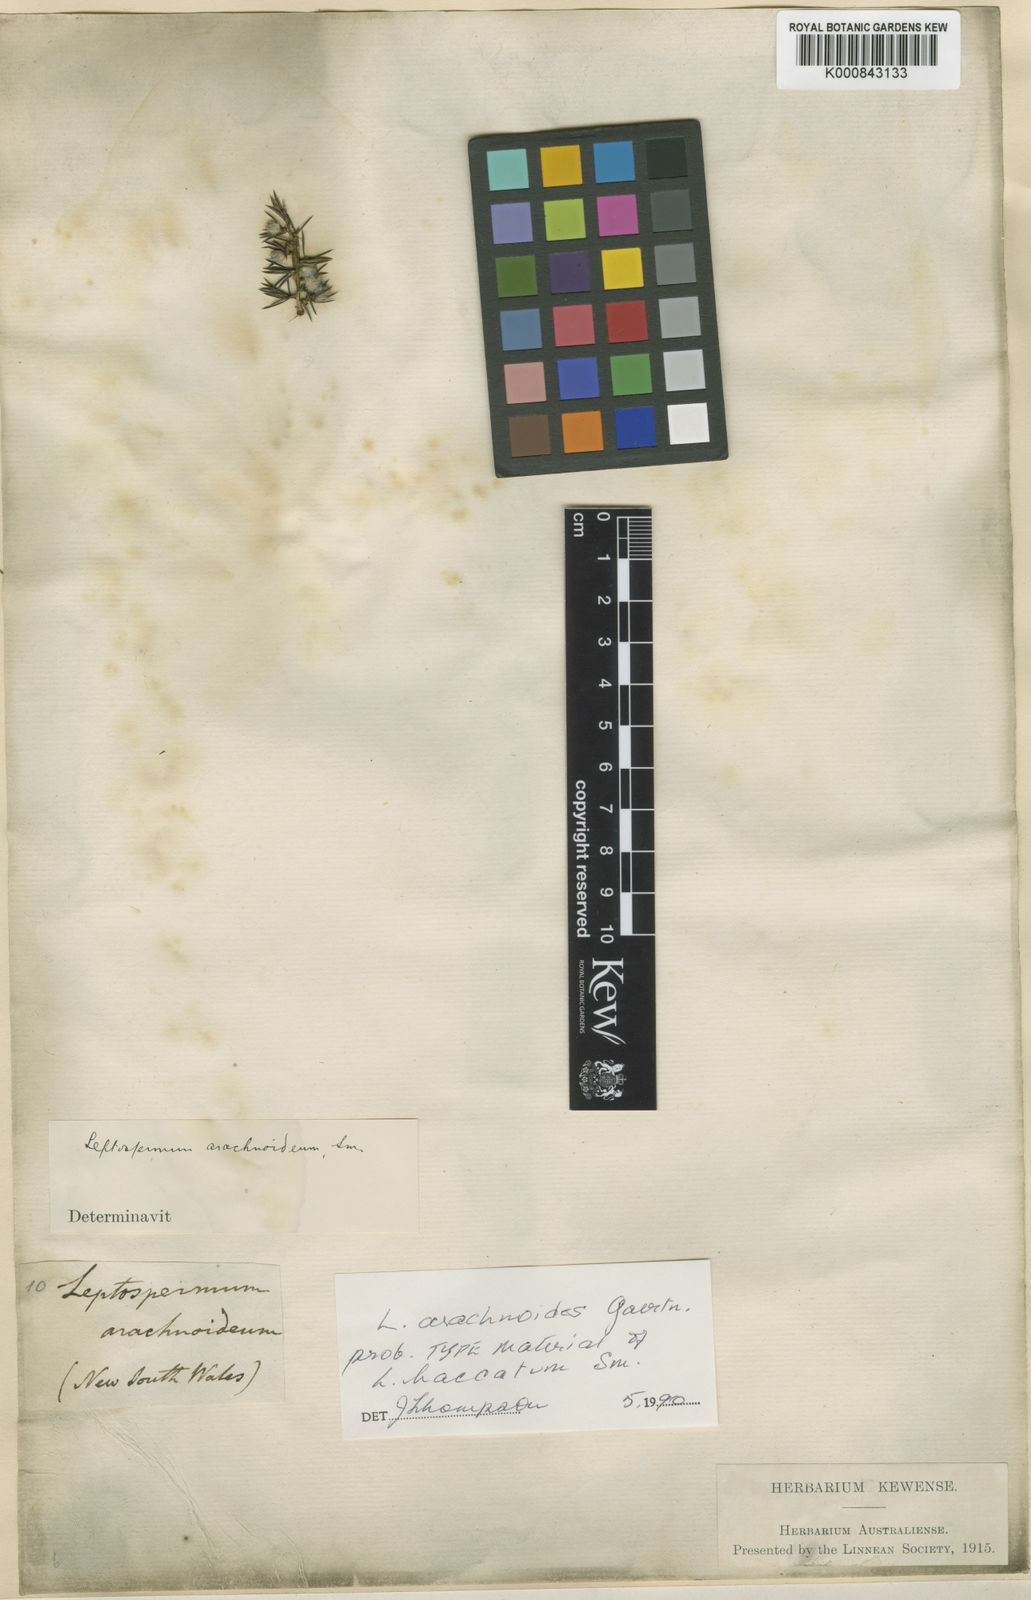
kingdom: Plantae
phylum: Tracheophyta
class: Magnoliopsida
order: Myrtales
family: Myrtaceae
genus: Leptospermum
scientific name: Leptospermum arachnoides
